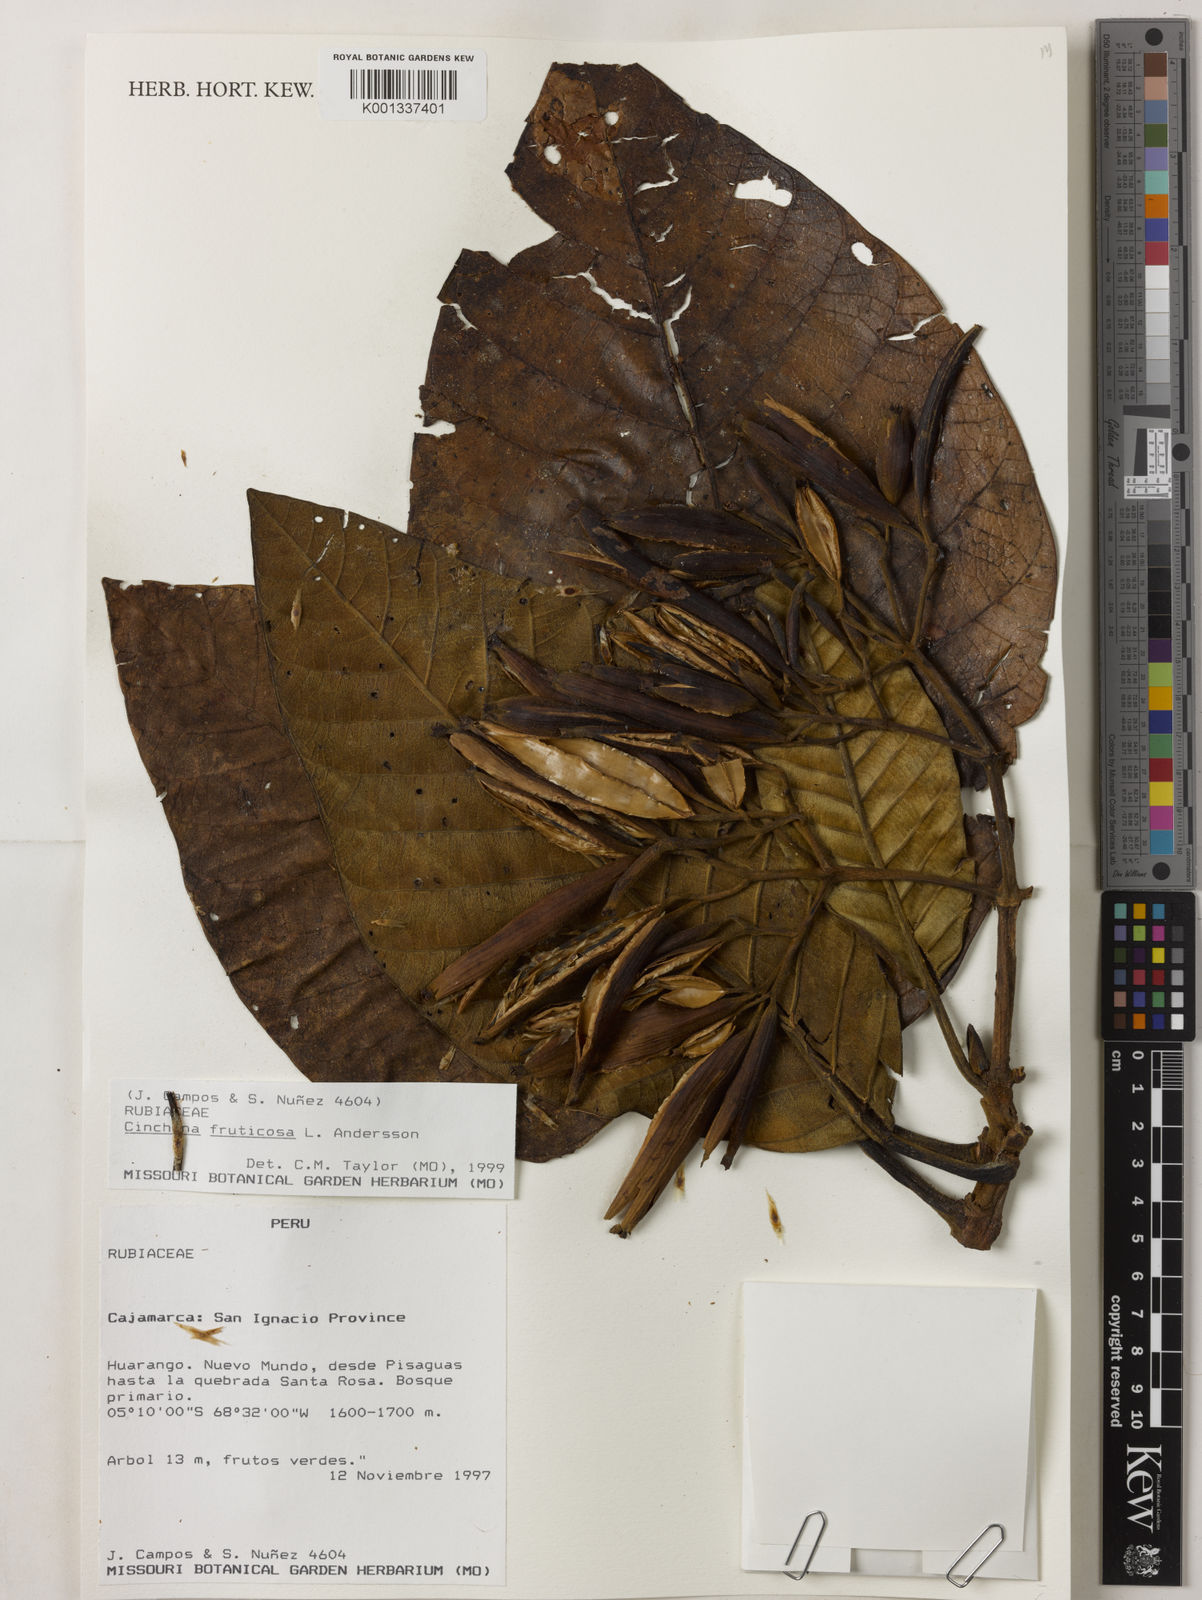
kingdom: Plantae
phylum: Tracheophyta
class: Magnoliopsida
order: Gentianales
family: Rubiaceae
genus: Cinchona
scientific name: Cinchona
